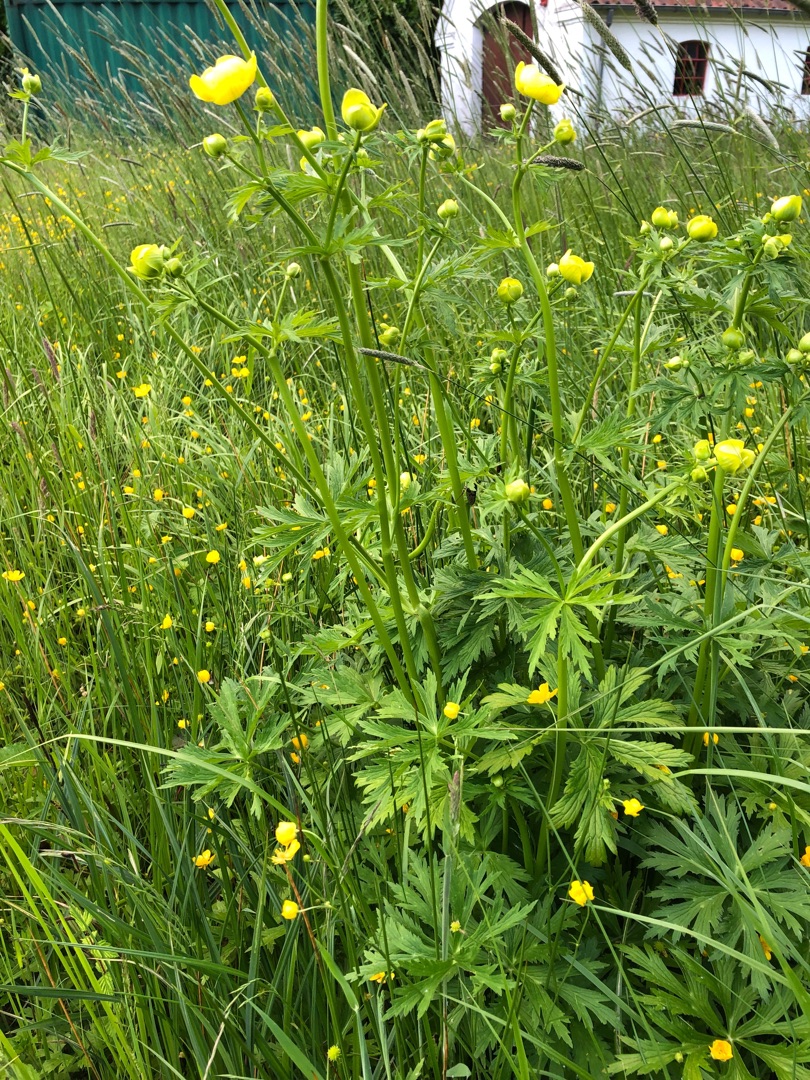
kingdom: Plantae
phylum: Tracheophyta
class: Magnoliopsida
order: Ranunculales
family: Ranunculaceae
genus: Trollius
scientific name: Trollius europaeus
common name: Engblomme
